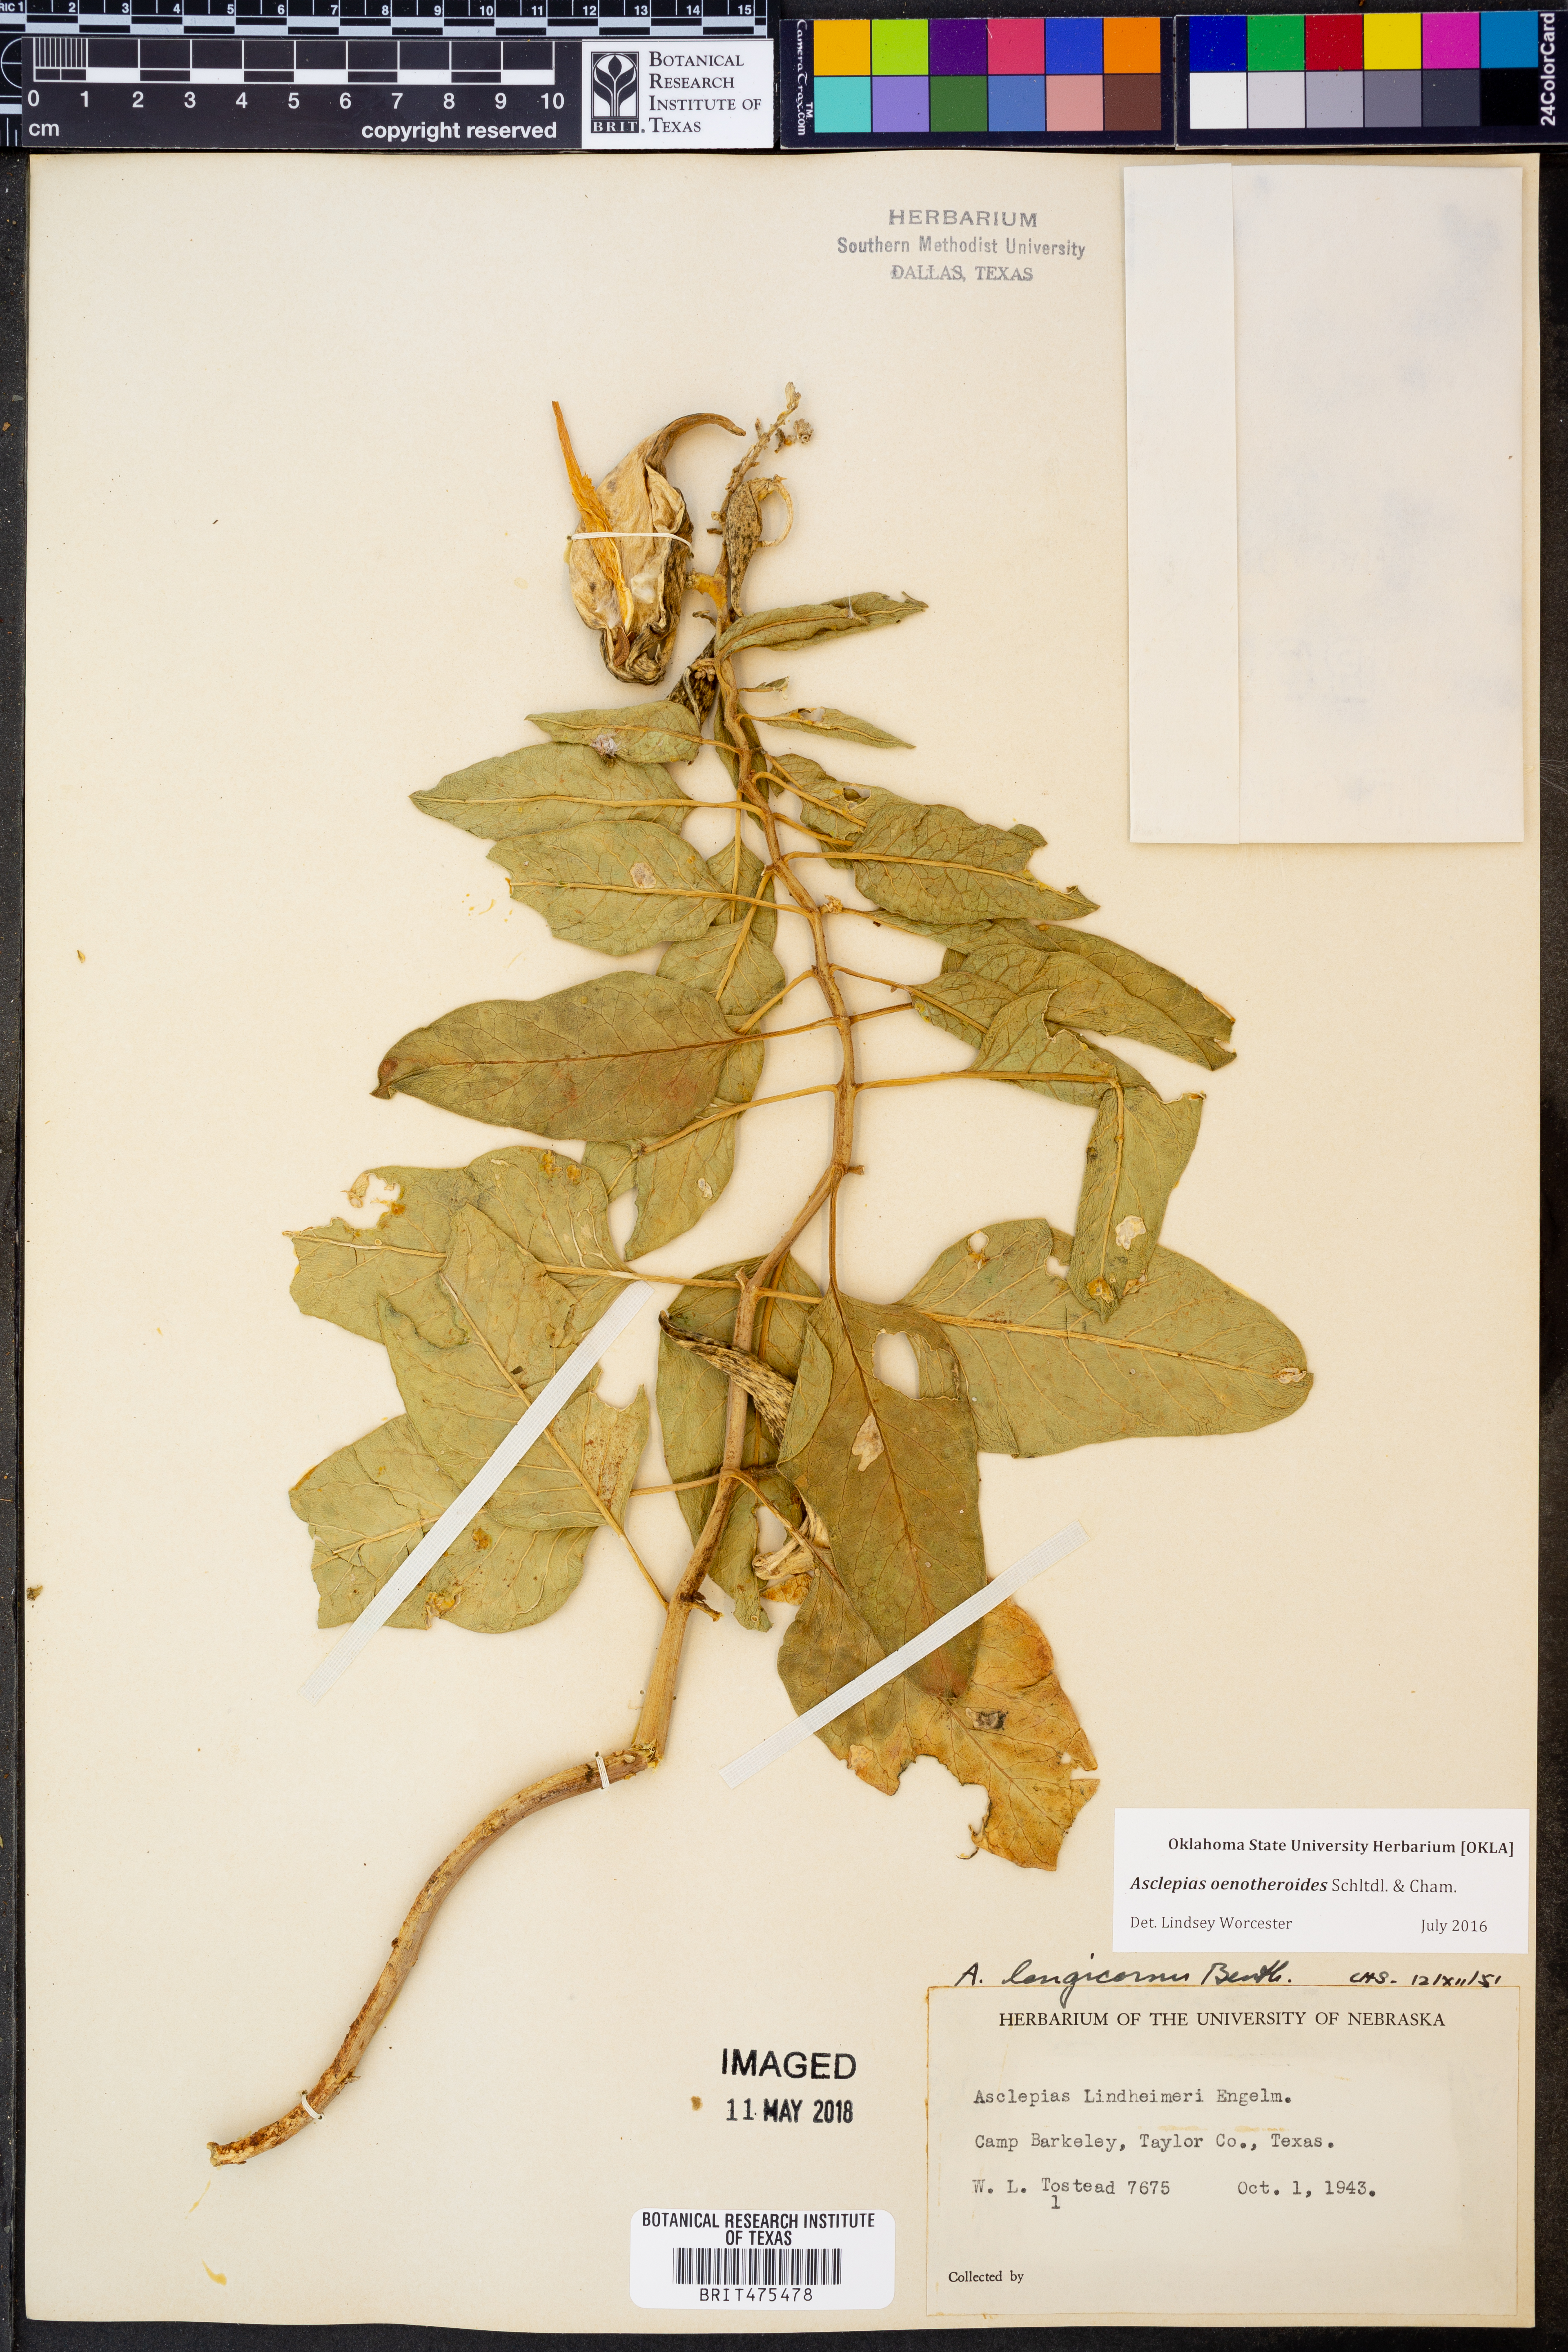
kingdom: Plantae
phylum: Tracheophyta
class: Magnoliopsida
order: Gentianales
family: Apocynaceae
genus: Asclepias
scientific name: Asclepias oenotheroides
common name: Zizotes milkweed
